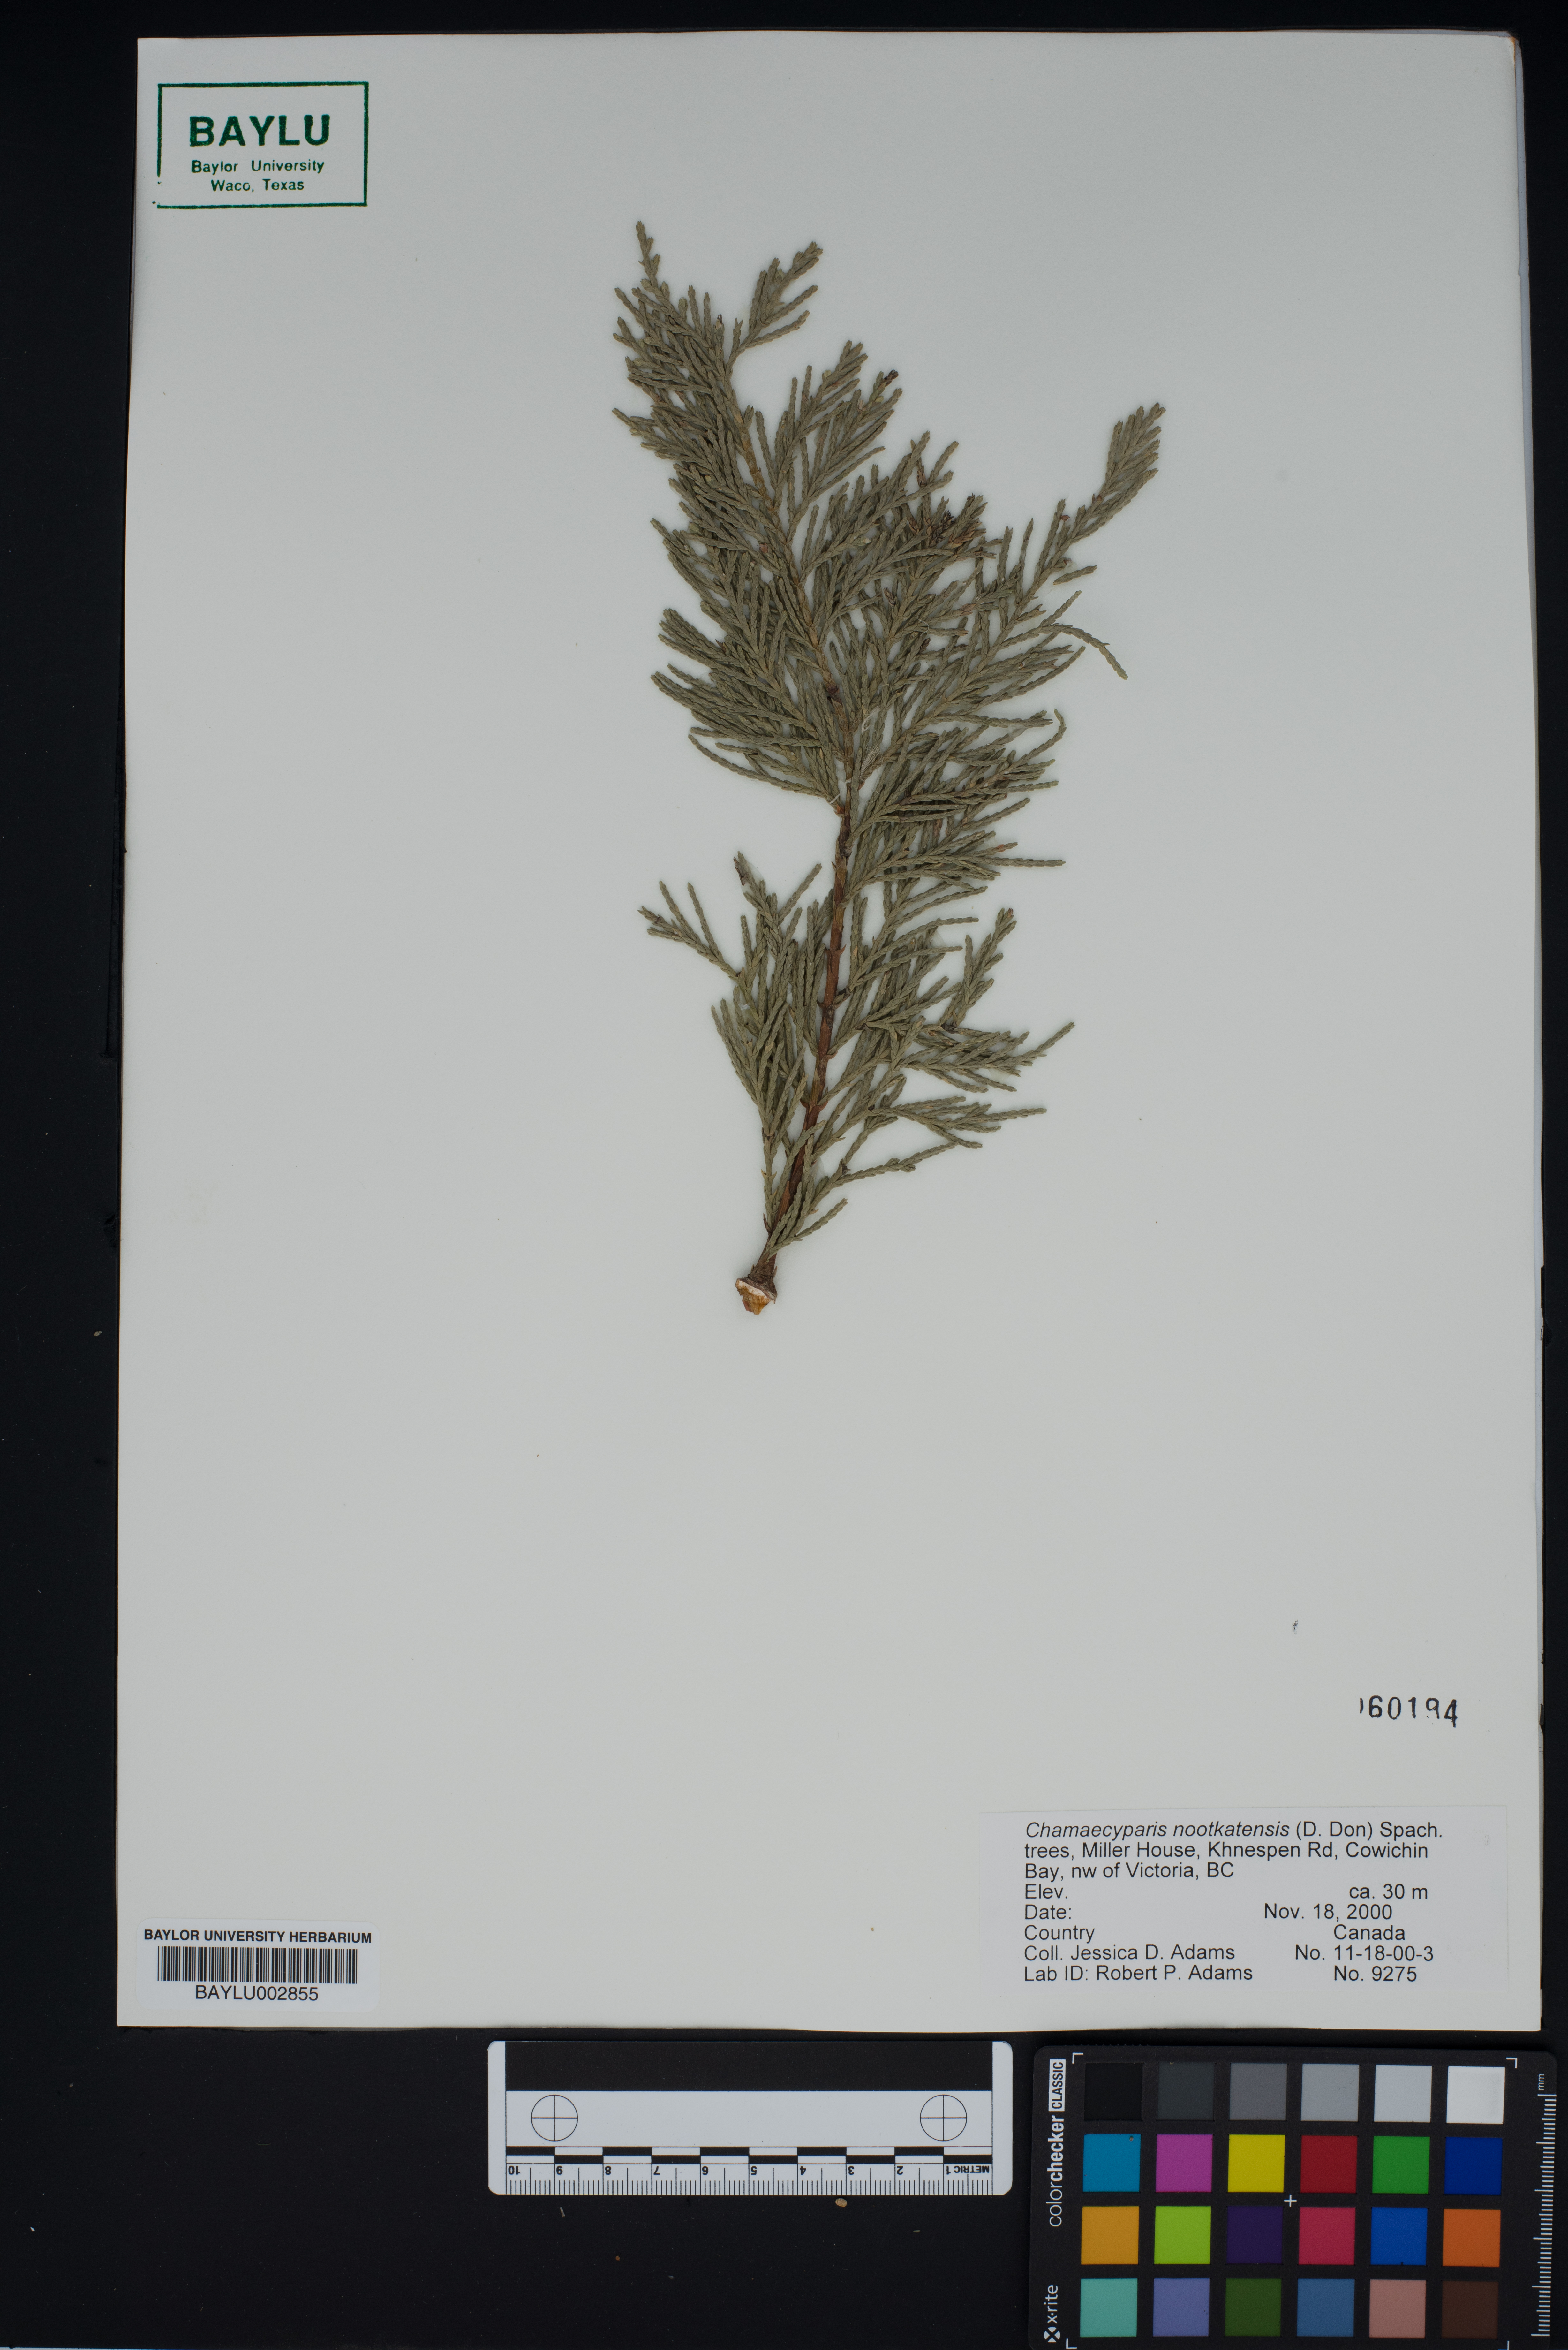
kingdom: Plantae
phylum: Tracheophyta
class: Pinopsida
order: Pinales
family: Cupressaceae
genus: Xanthocyparis
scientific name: Xanthocyparis nootkatensis
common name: Nootka cypress
